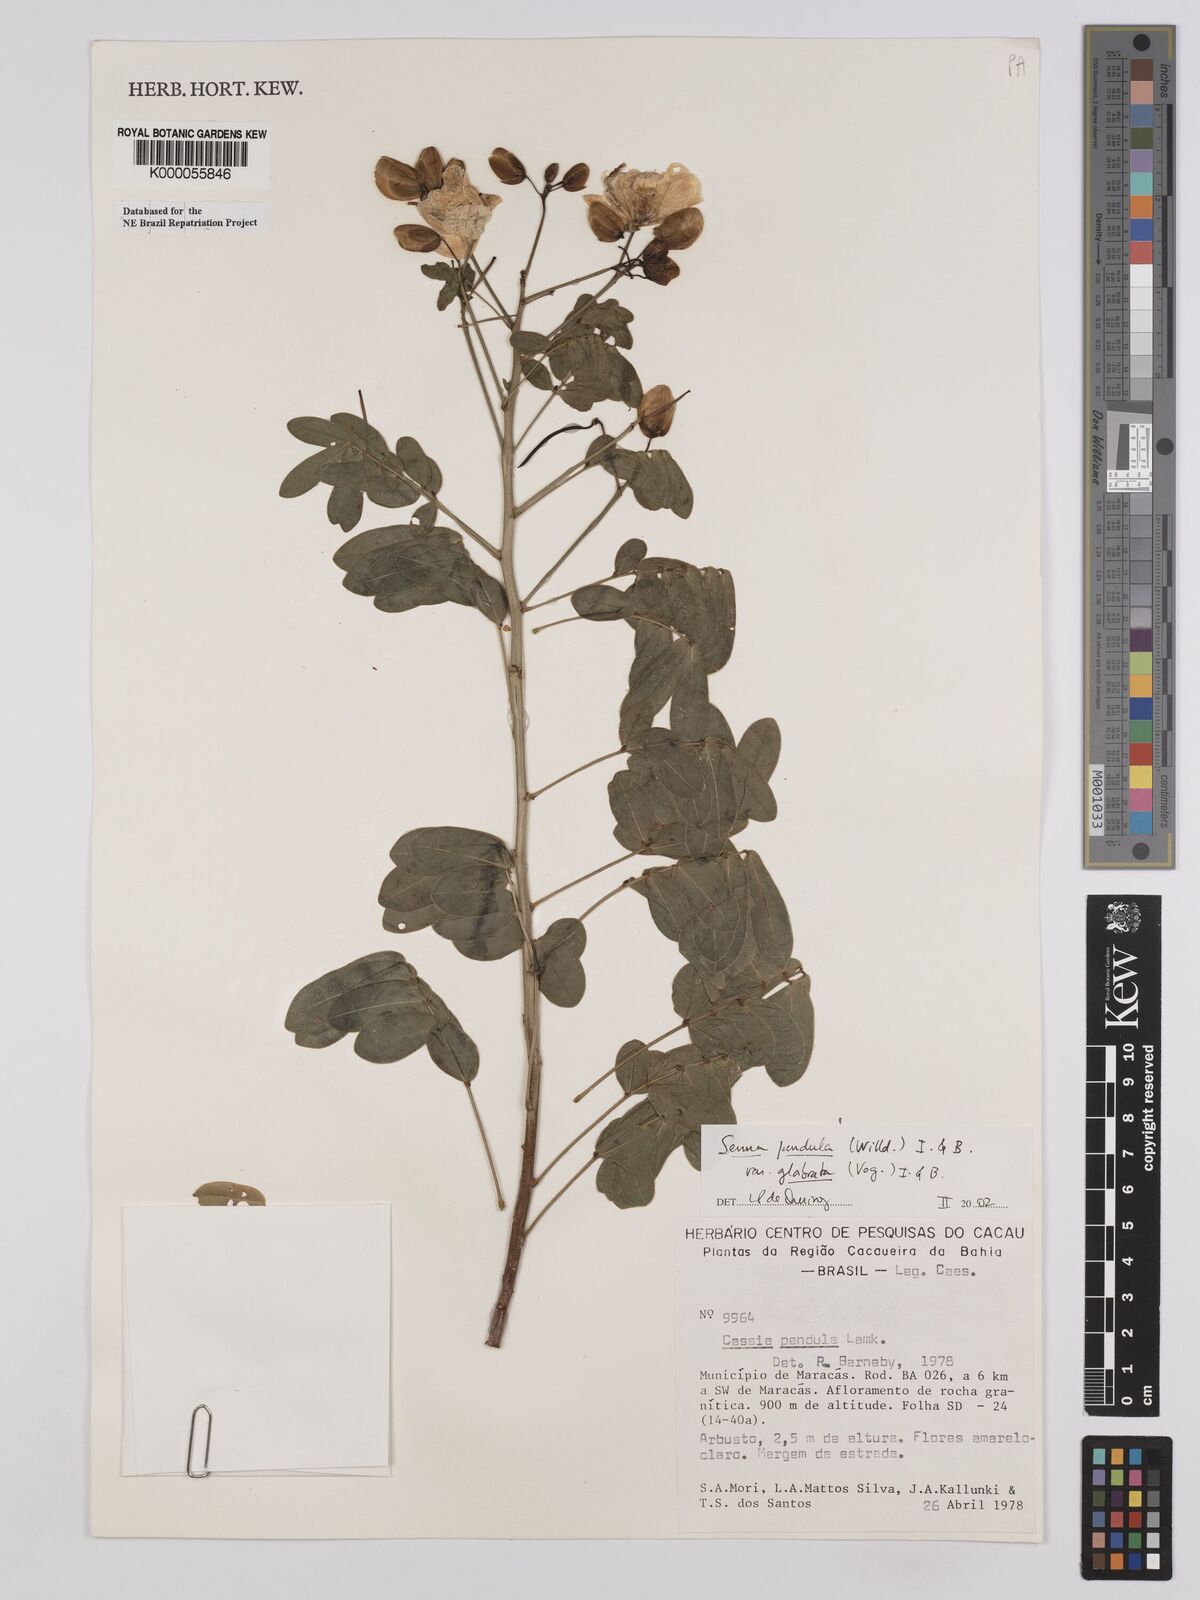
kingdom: Plantae
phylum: Tracheophyta
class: Magnoliopsida
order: Fabales
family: Fabaceae
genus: Senna
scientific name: Senna pendula
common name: Easter cassia
